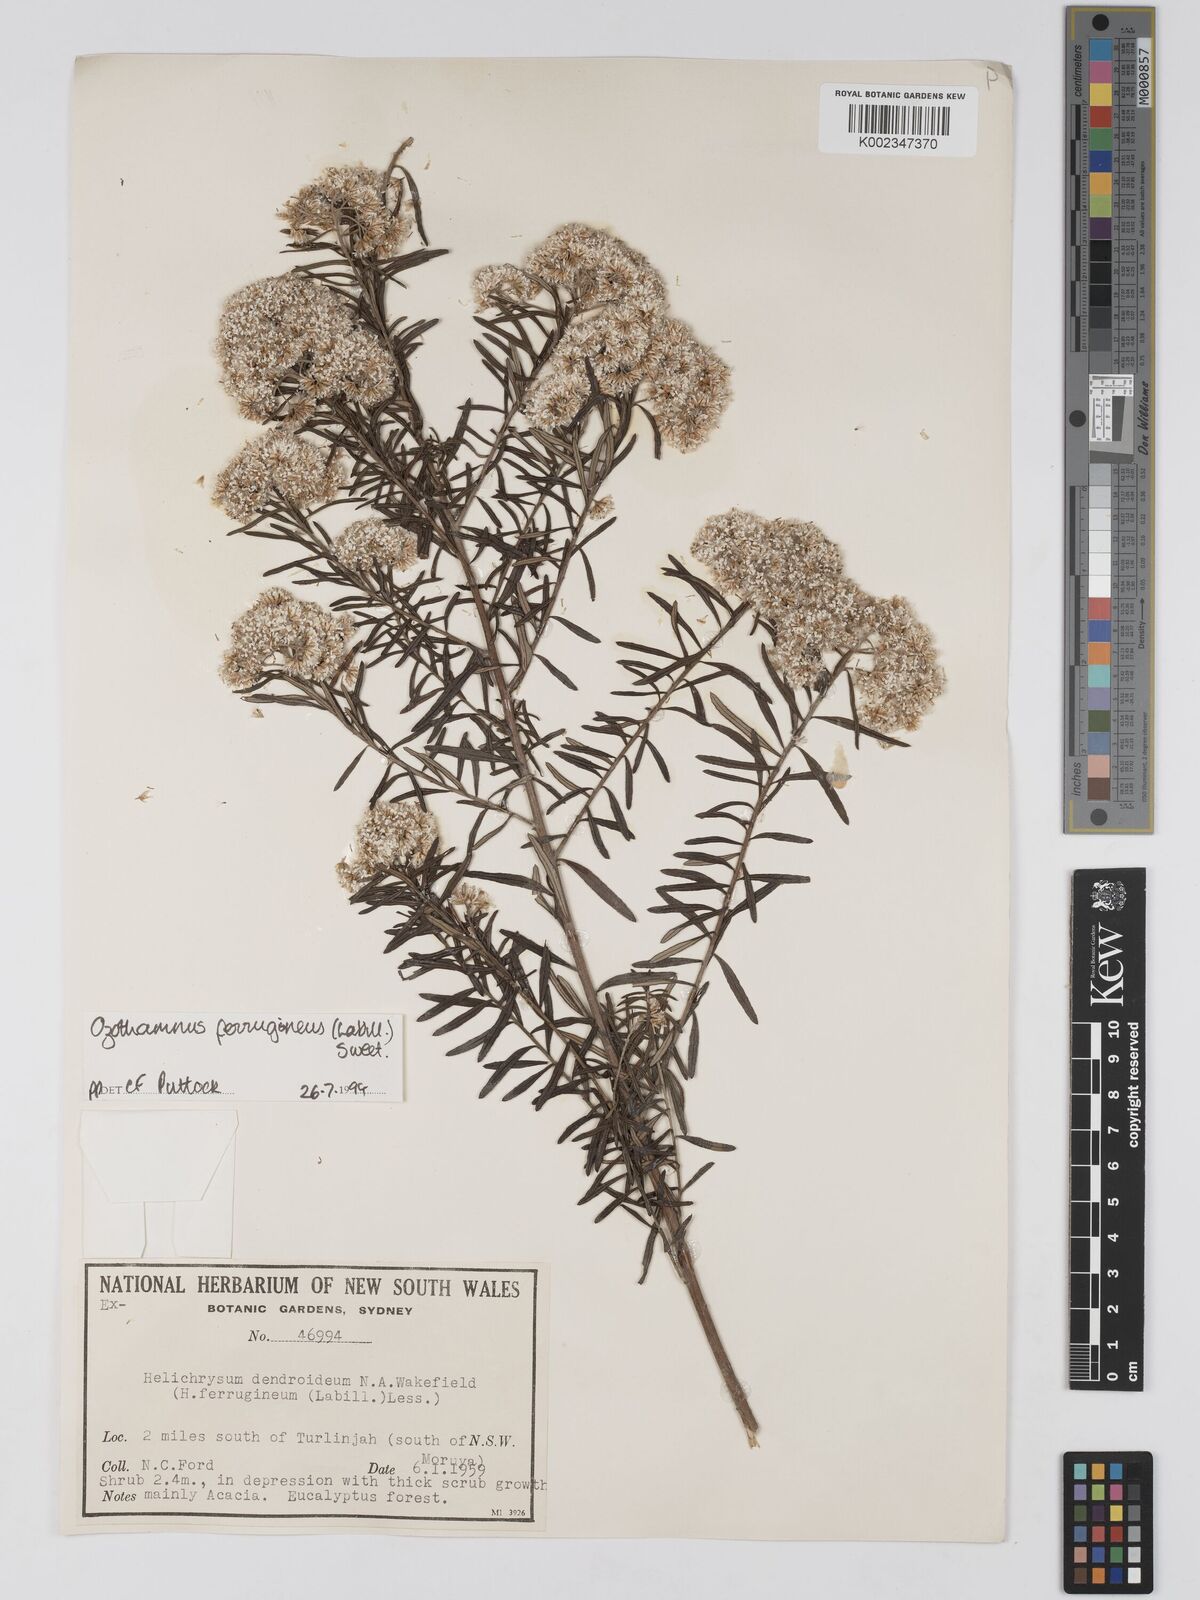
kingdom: Plantae
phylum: Tracheophyta
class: Magnoliopsida
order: Asterales
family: Asteraceae
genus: Ozothamnus
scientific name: Ozothamnus ferrugineus
